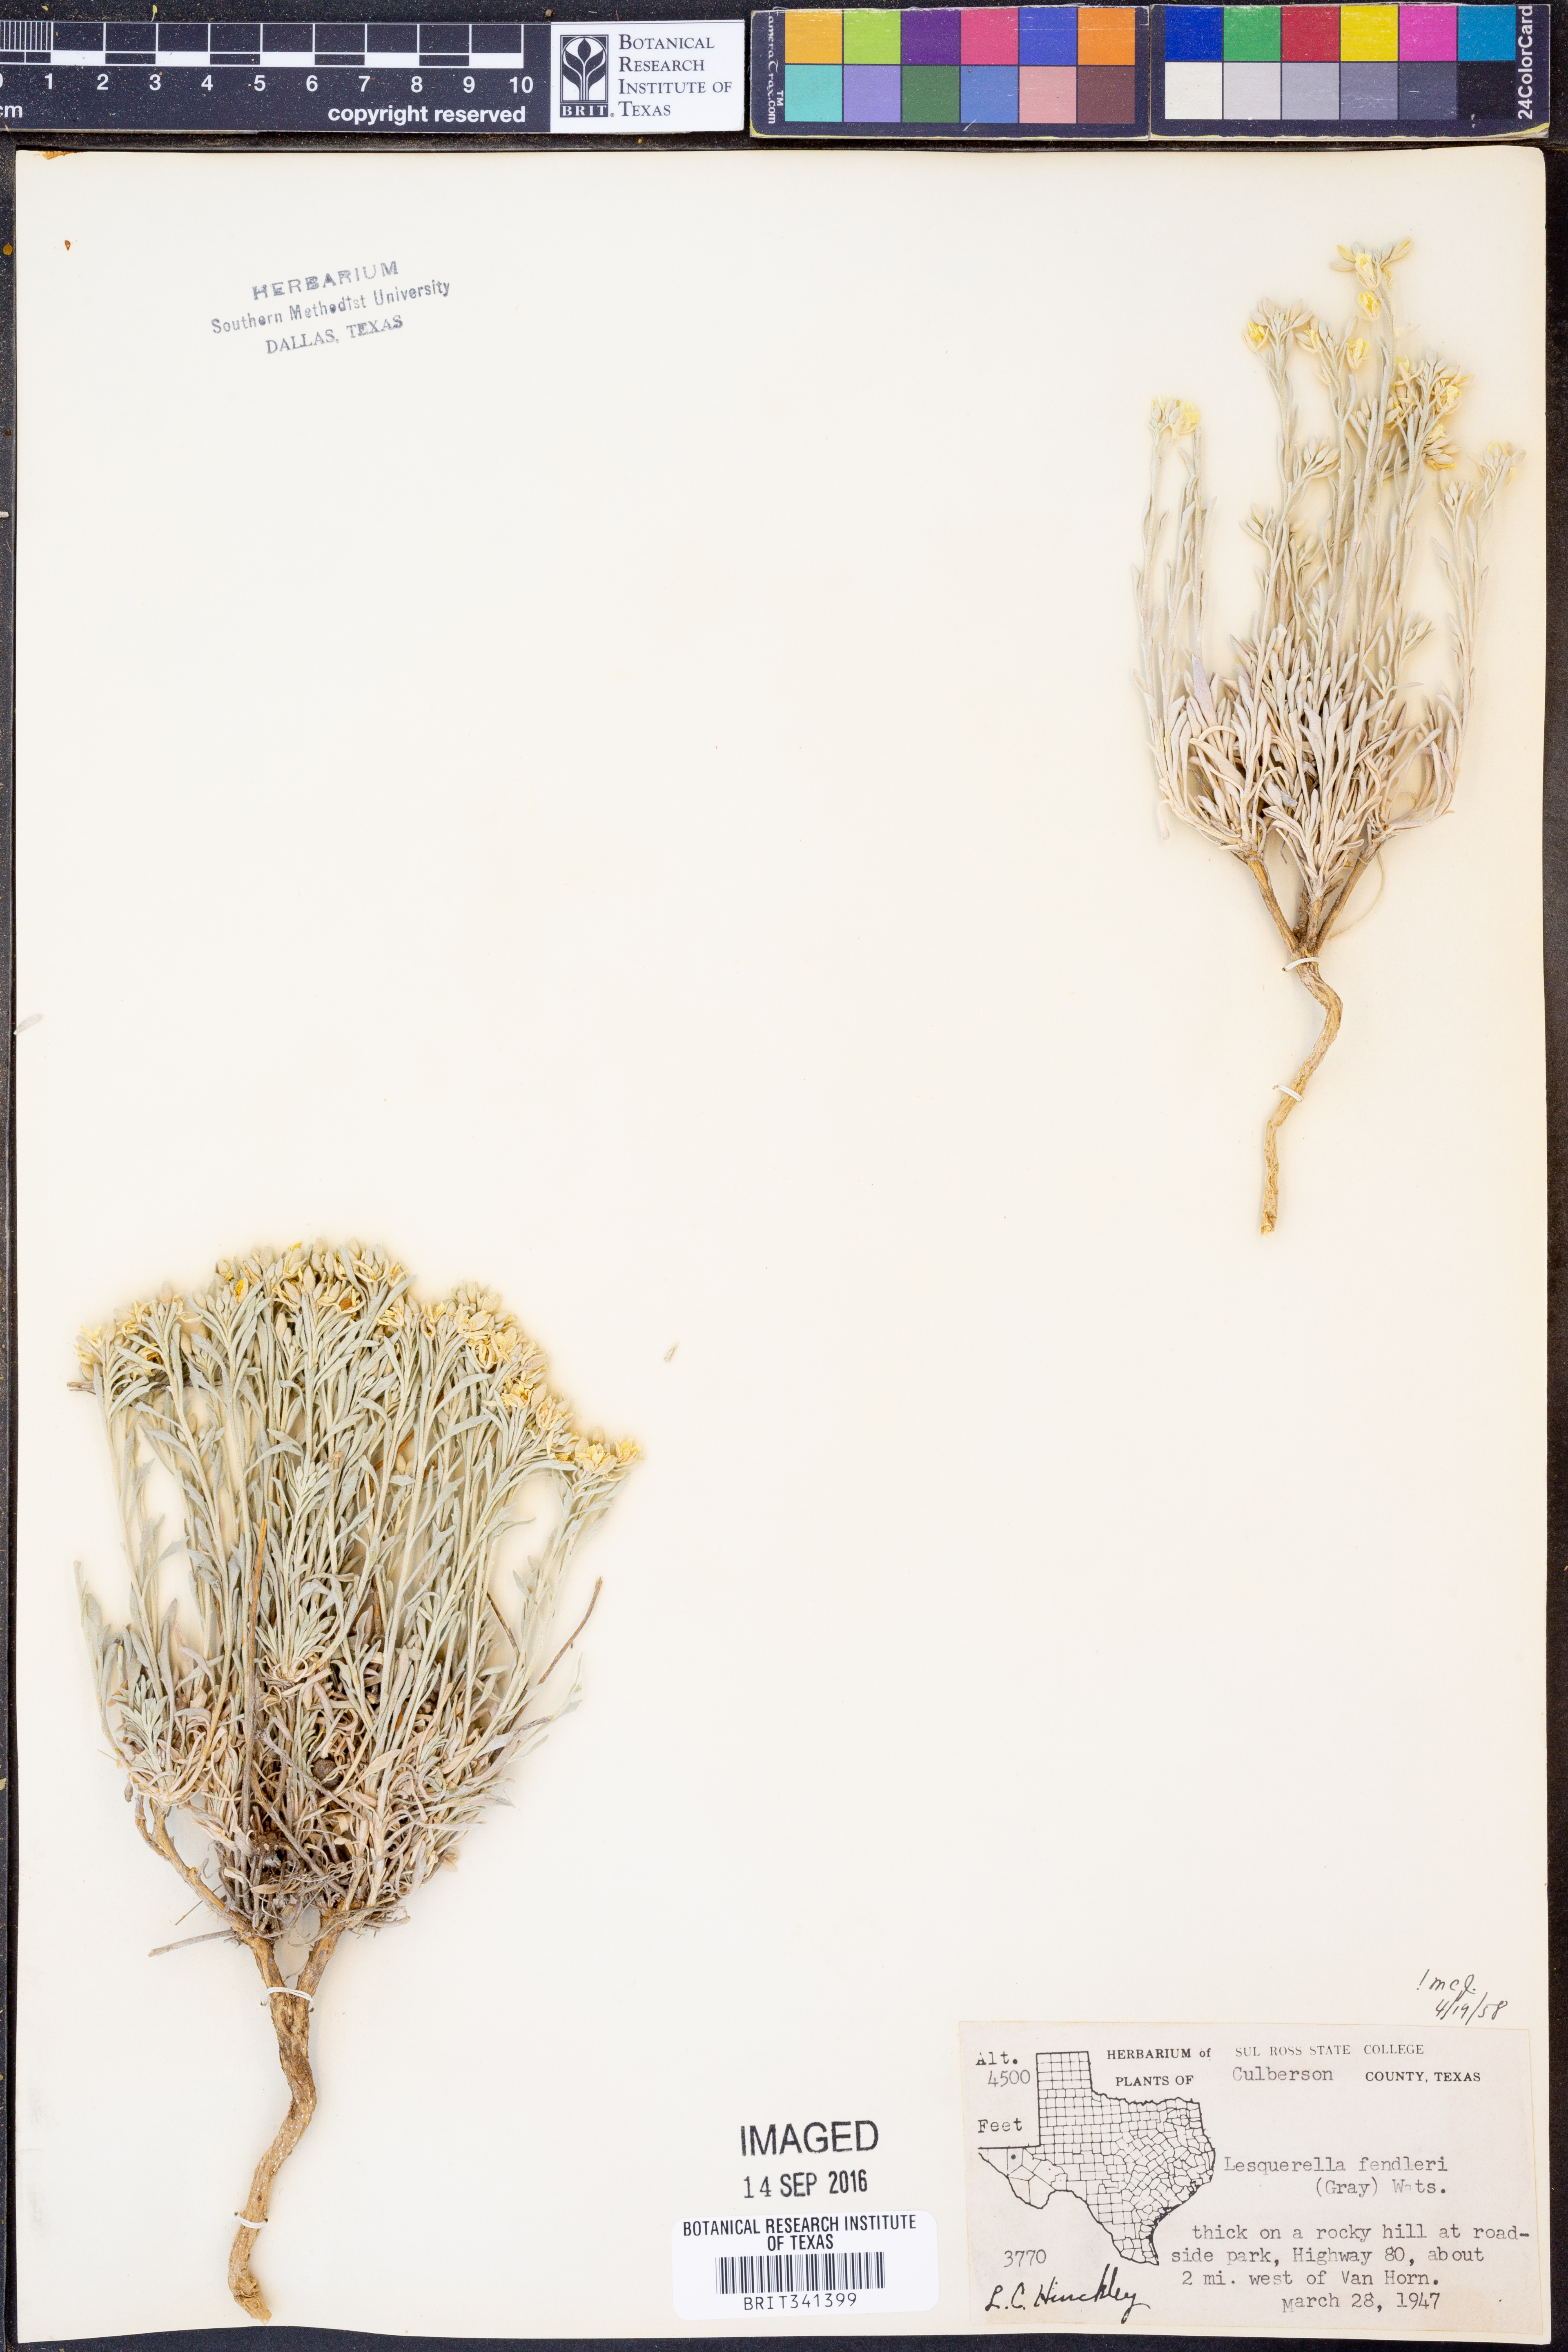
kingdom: Plantae
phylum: Tracheophyta
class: Magnoliopsida
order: Brassicales
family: Brassicaceae
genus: Physaria
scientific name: Physaria fendleri
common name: Fendler's bladderpod
